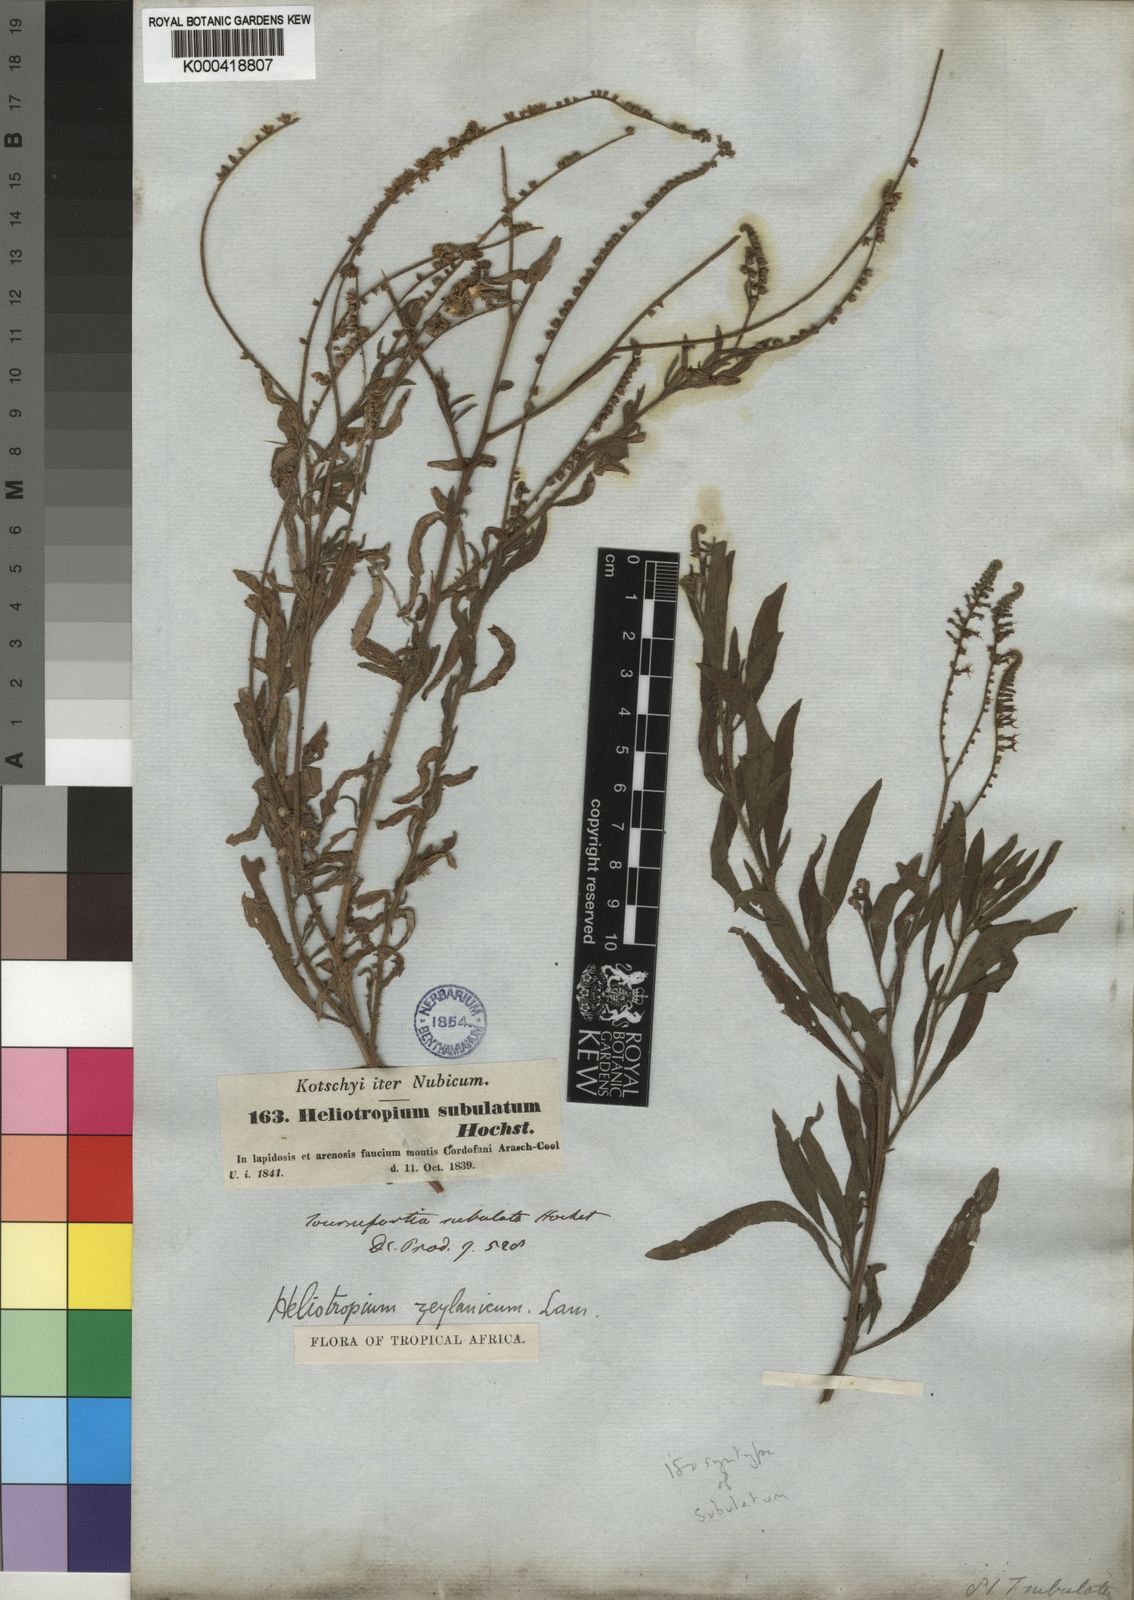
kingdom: Plantae
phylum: Tracheophyta
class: Magnoliopsida
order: Boraginales
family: Heliotropiaceae
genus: Heliotropium
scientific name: Heliotropium zeylanicum
